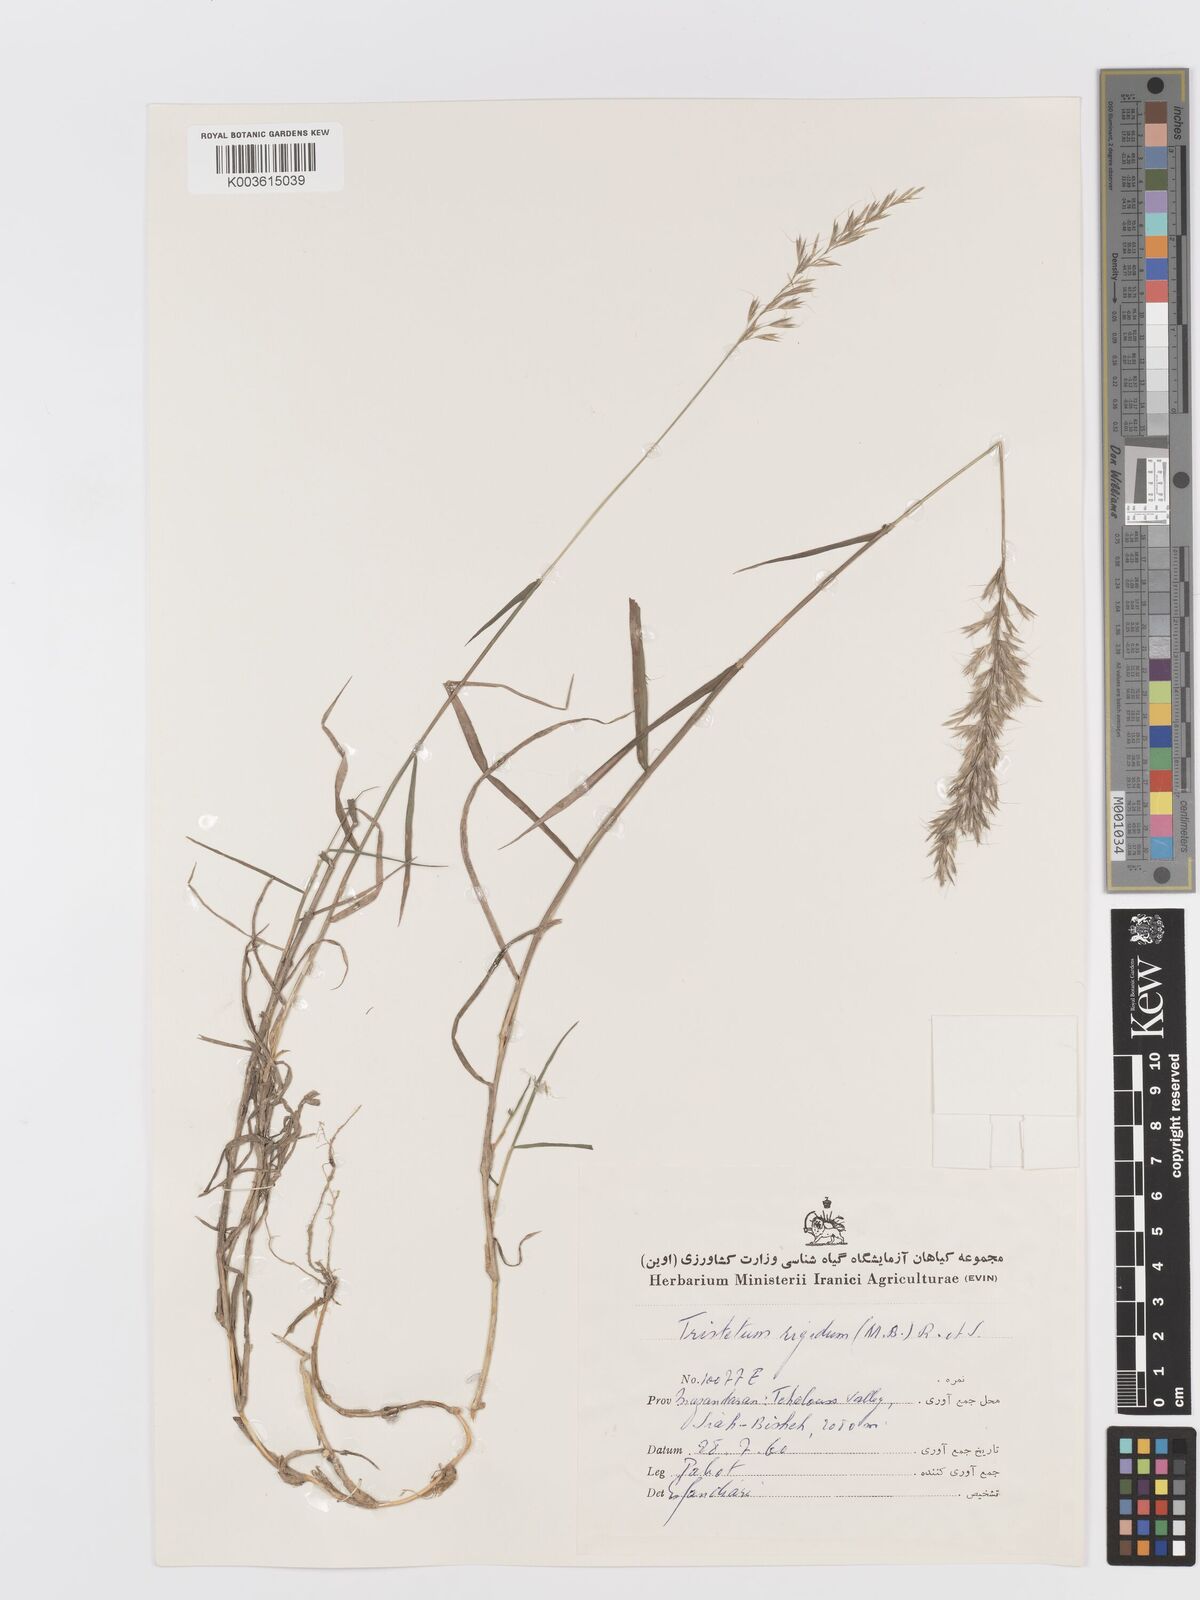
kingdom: Plantae
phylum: Tracheophyta
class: Liliopsida
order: Poales
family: Poaceae
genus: Trisetum
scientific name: Trisetum rigidum
